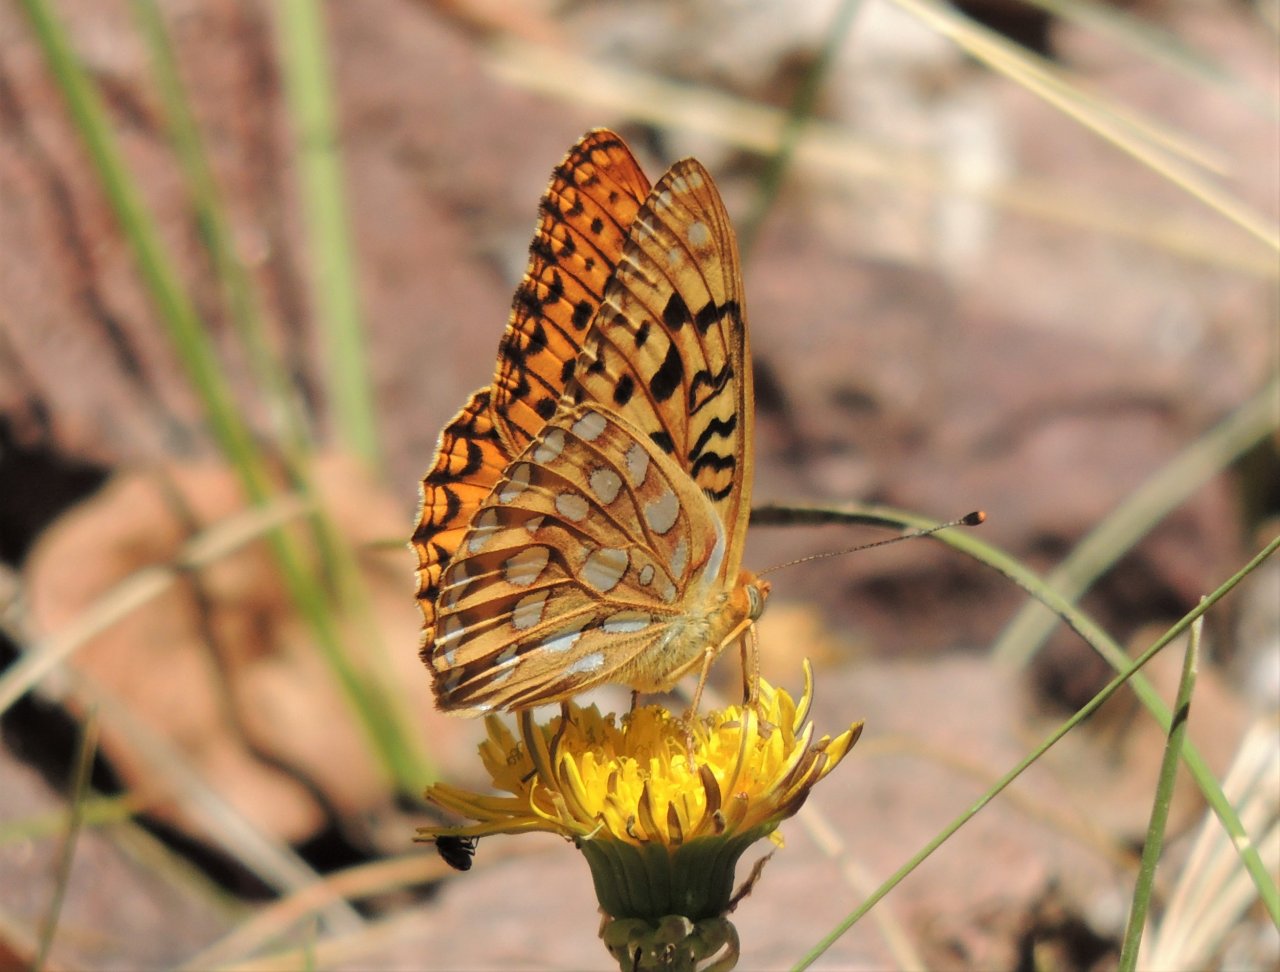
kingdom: Animalia
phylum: Arthropoda
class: Insecta
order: Lepidoptera
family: Nymphalidae
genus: Speyeria
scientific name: Speyeria zerene
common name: Zerene Fritillary
